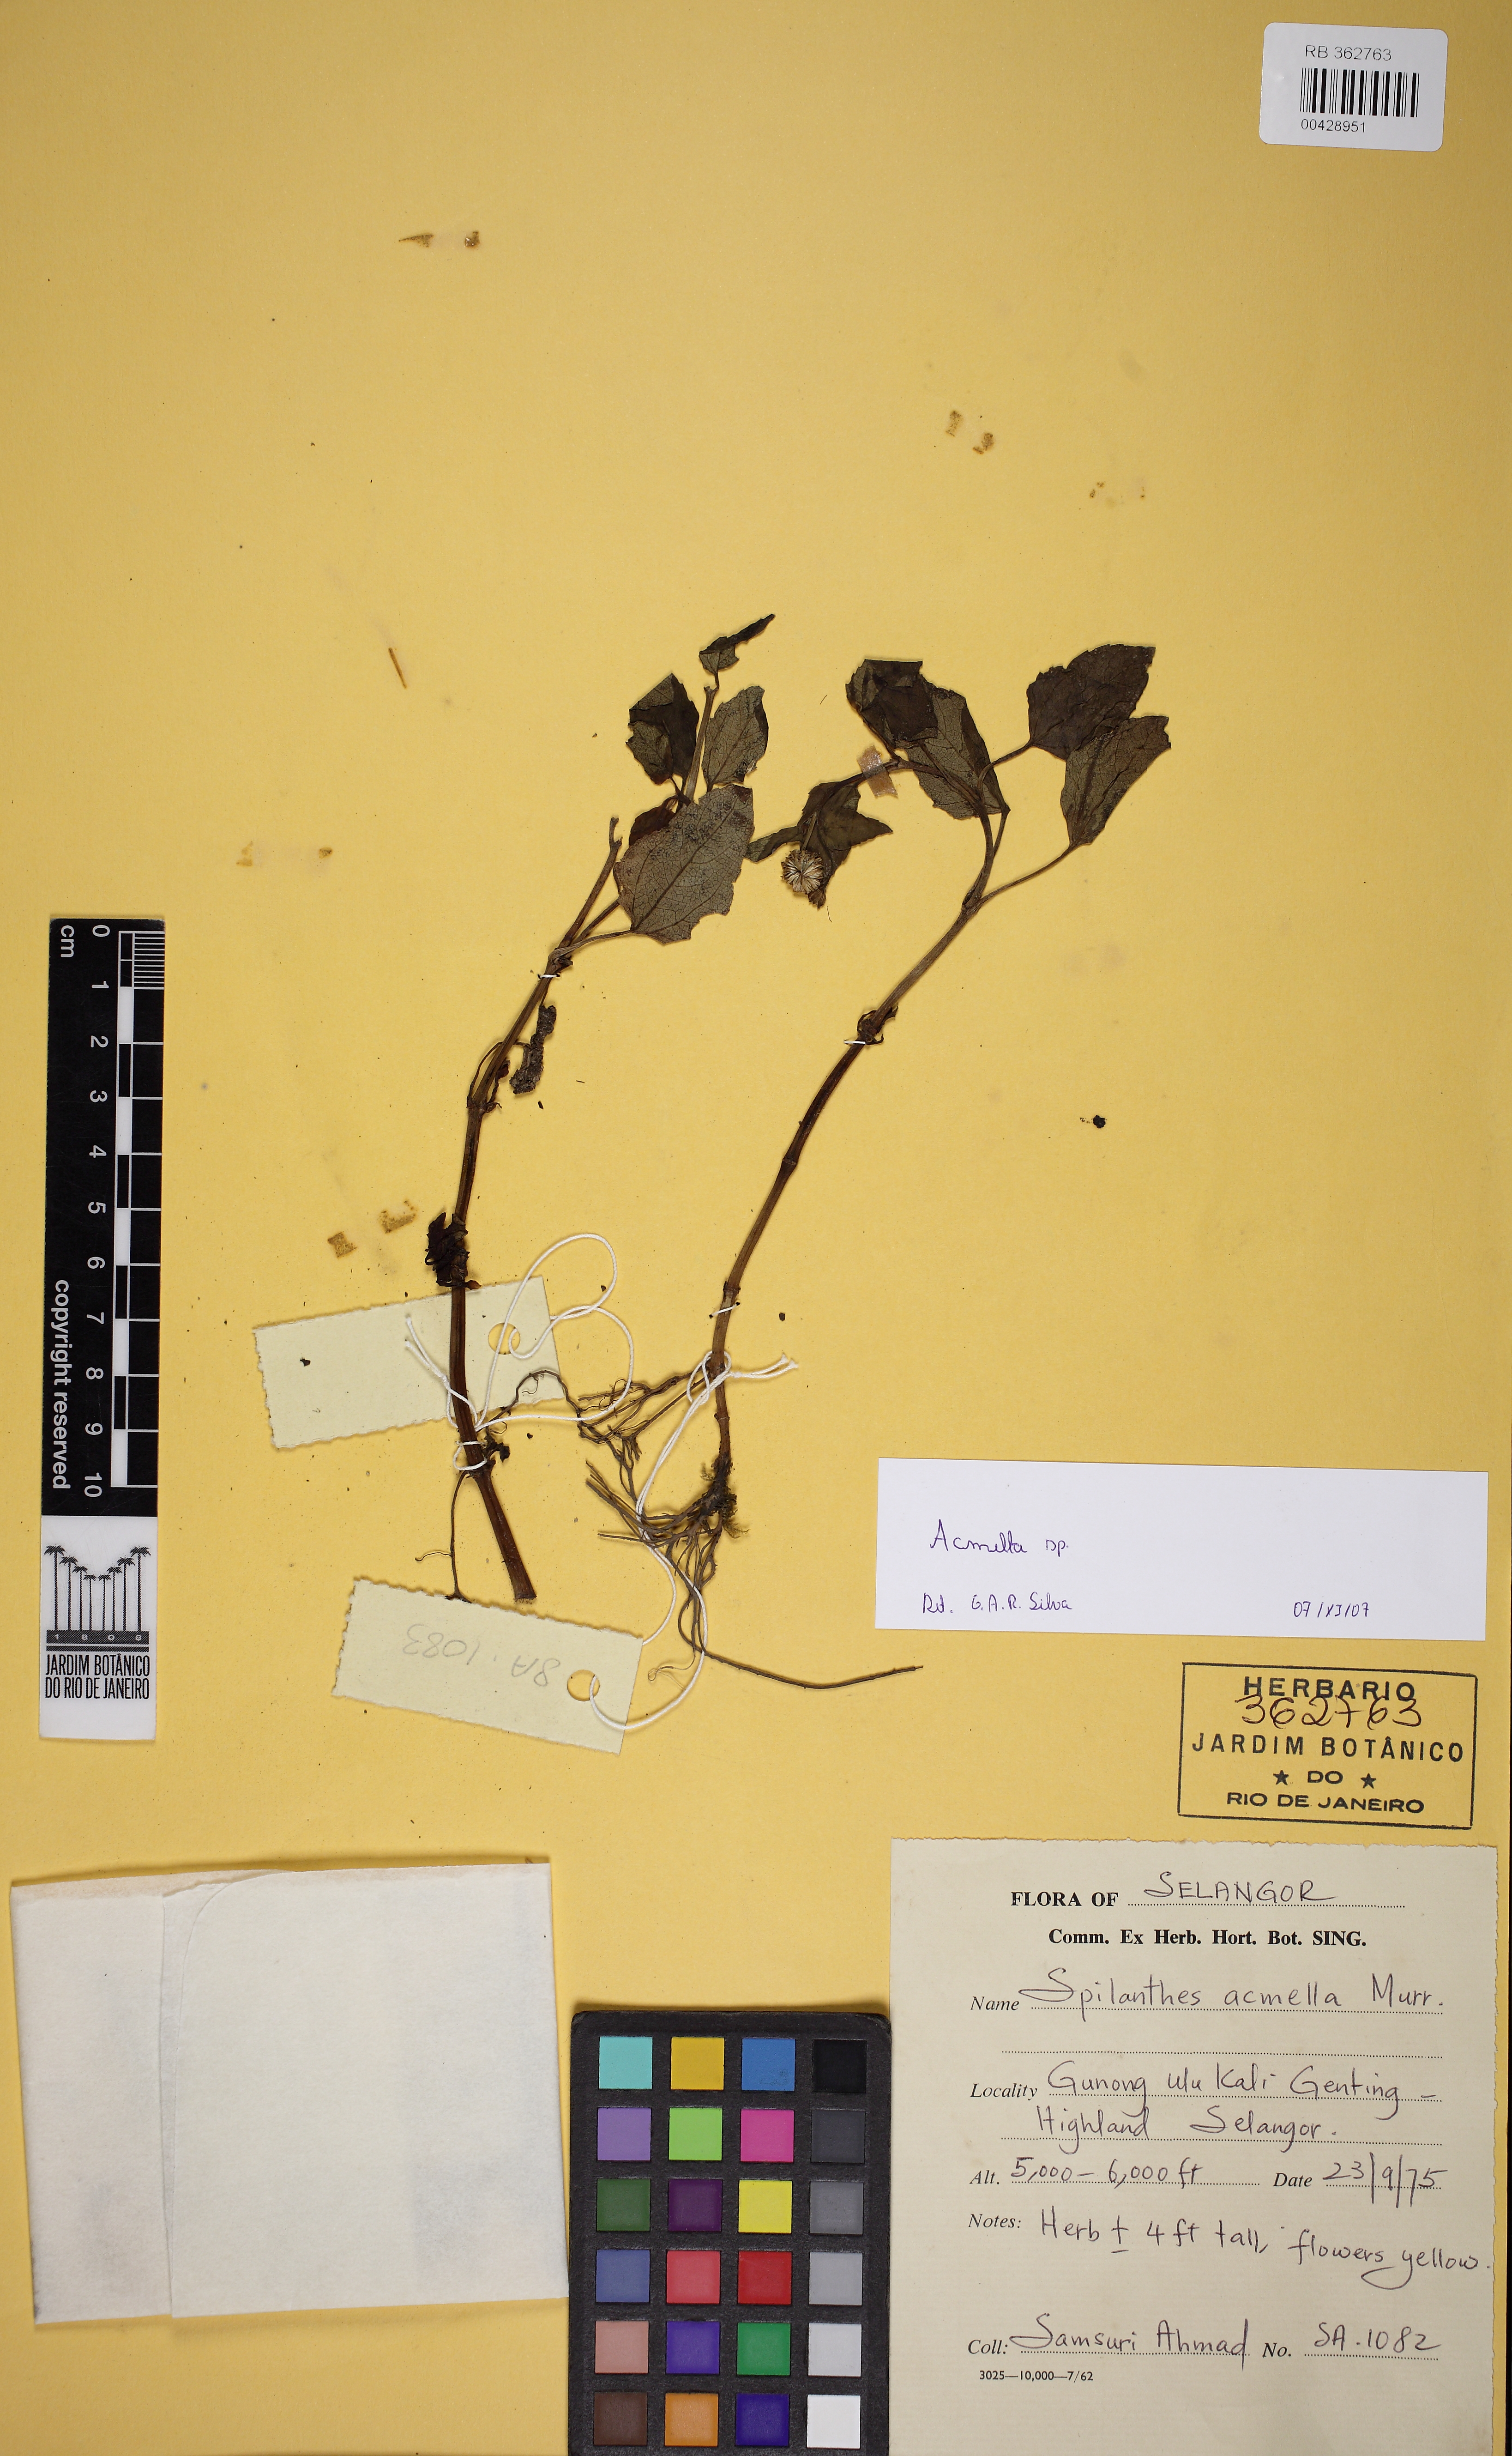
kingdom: Plantae
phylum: Tracheophyta
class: Magnoliopsida
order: Asterales
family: Asteraceae
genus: Acmella
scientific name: Acmella
